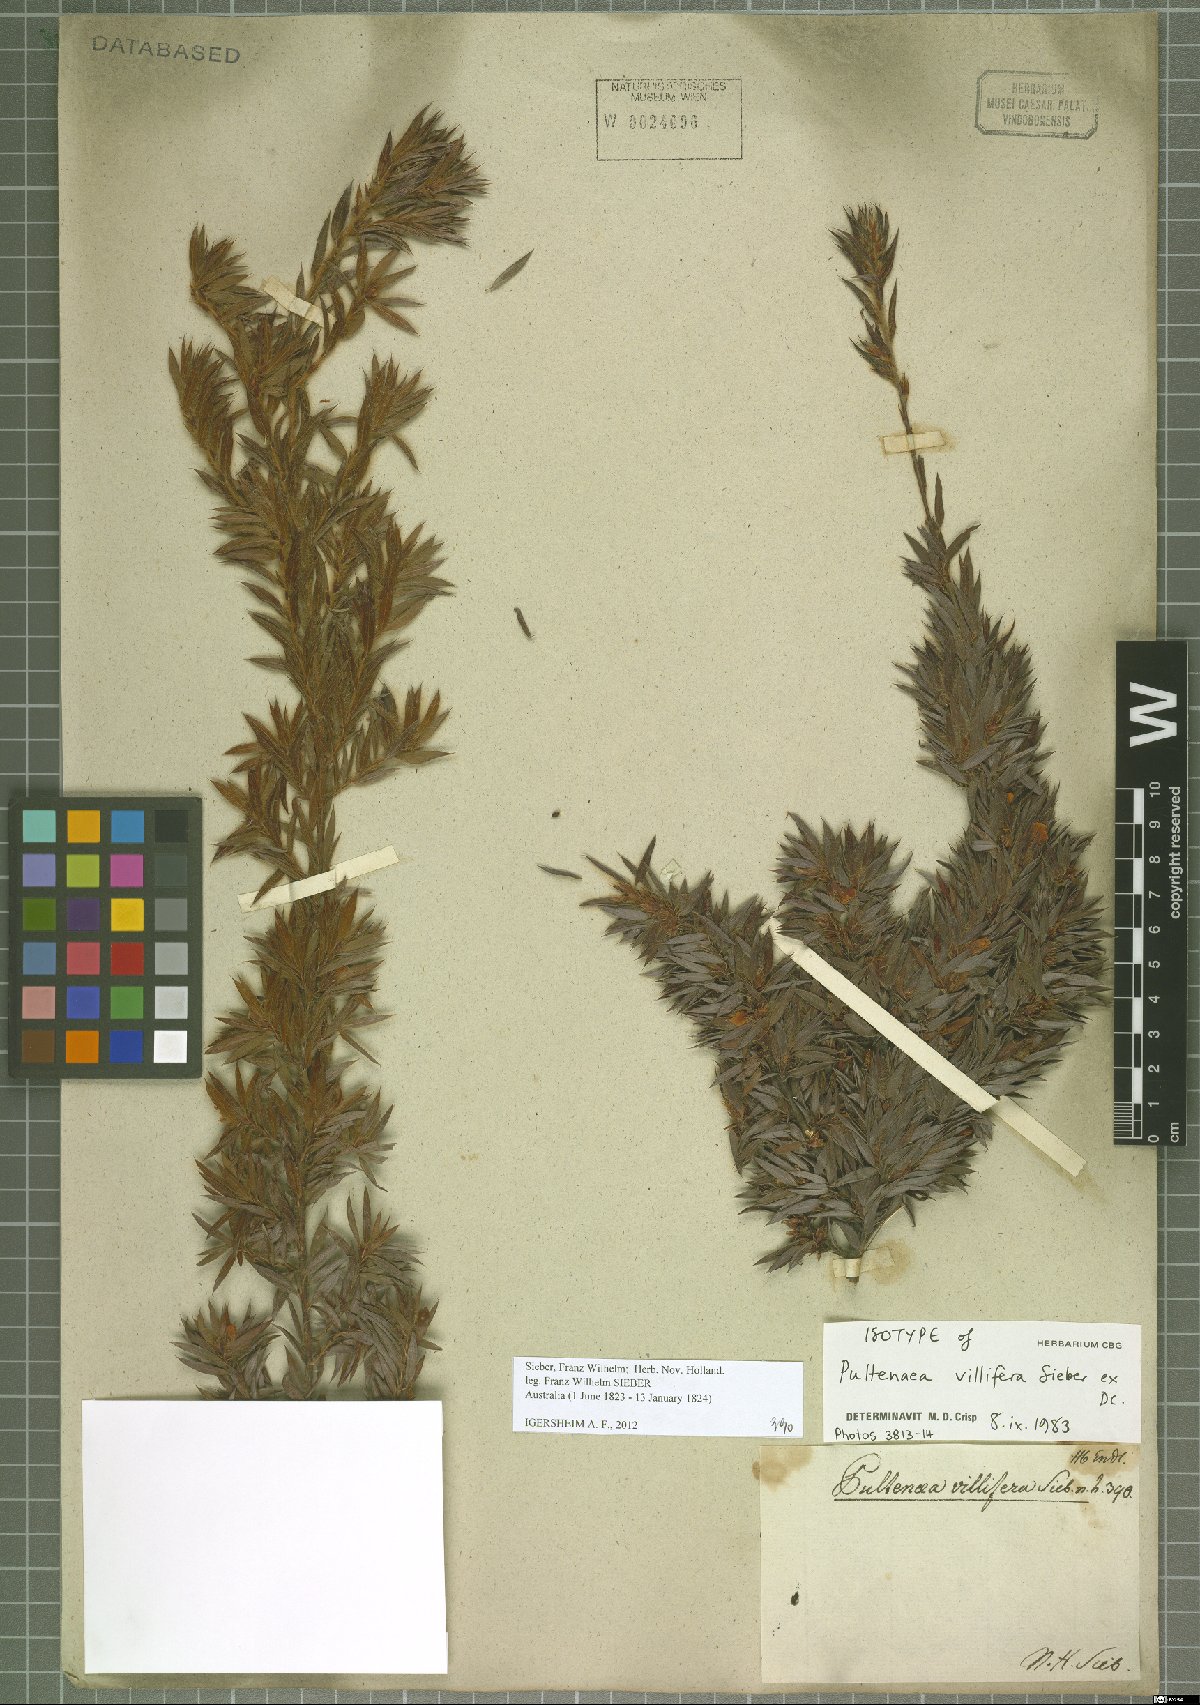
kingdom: Plantae
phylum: Tracheophyta
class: Magnoliopsida
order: Fabales
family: Fabaceae
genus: Pultenaea
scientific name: Pultenaea villifera
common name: Yellow bush-pea
